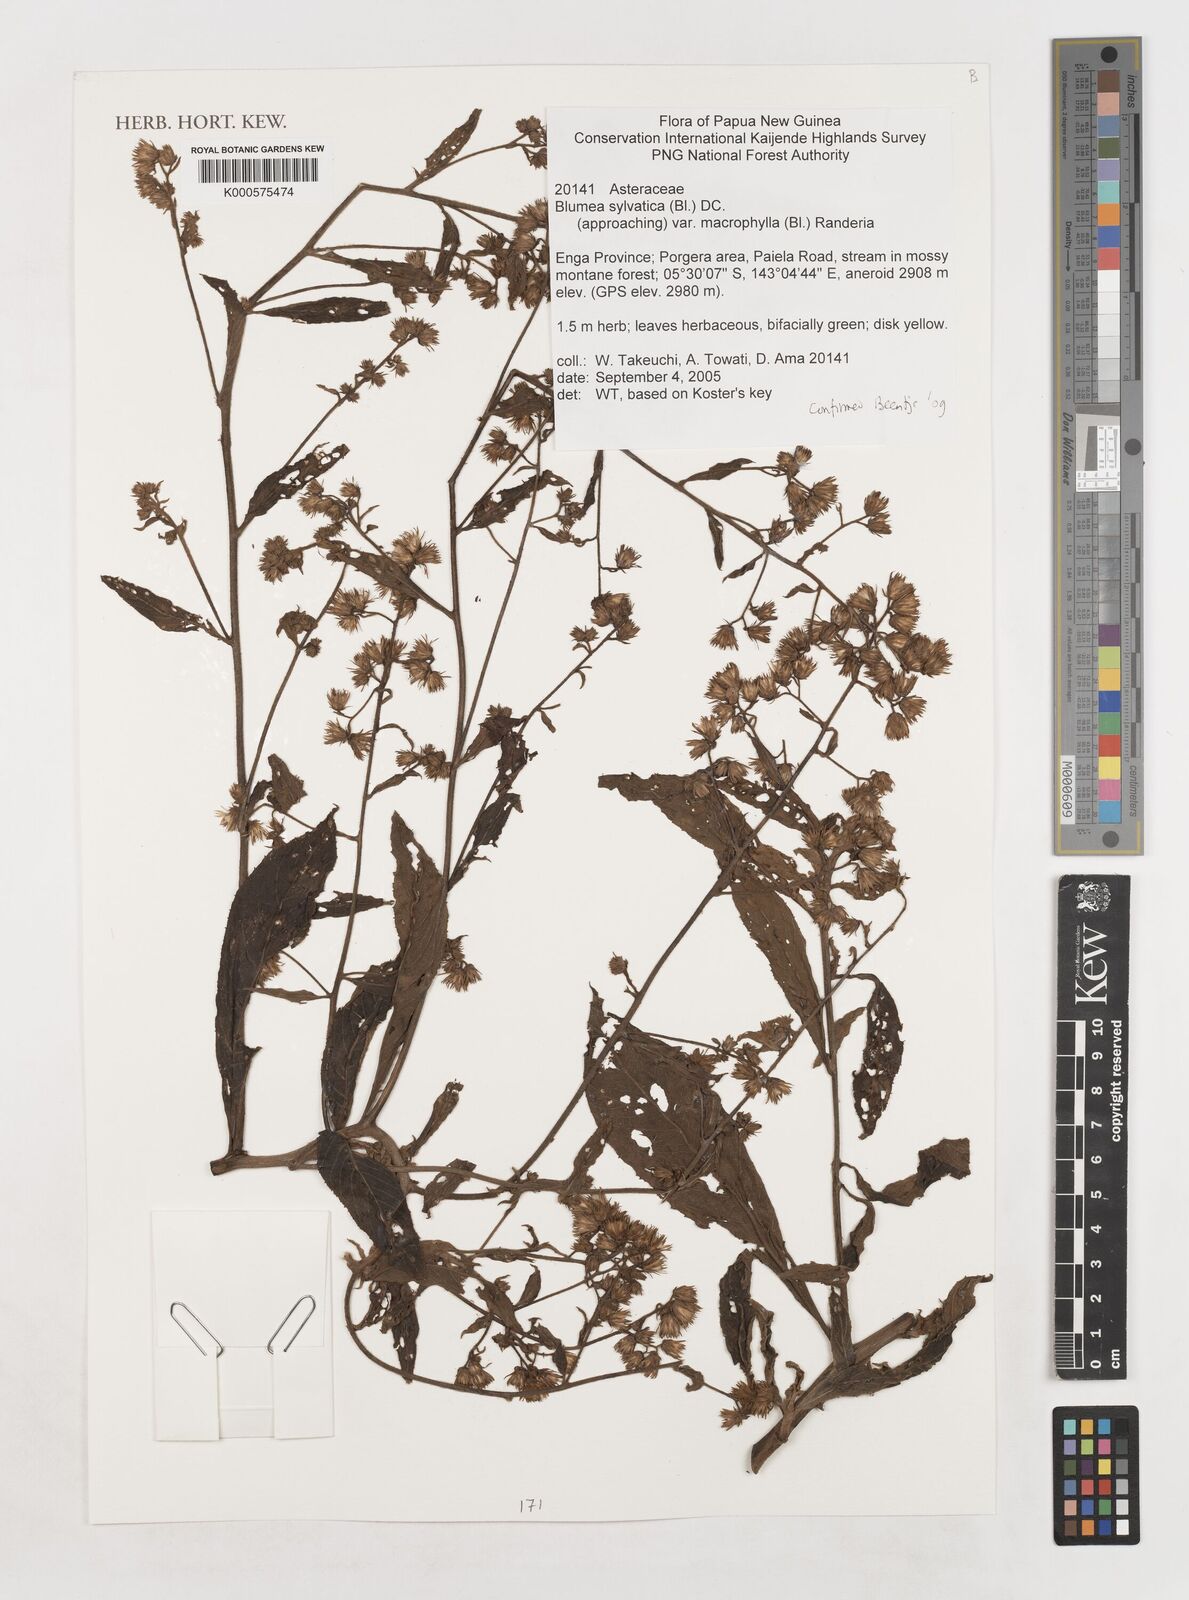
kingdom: Plantae
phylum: Tracheophyta
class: Magnoliopsida
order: Asterales
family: Asteraceae
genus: Blumea
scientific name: Blumea sylvatica
